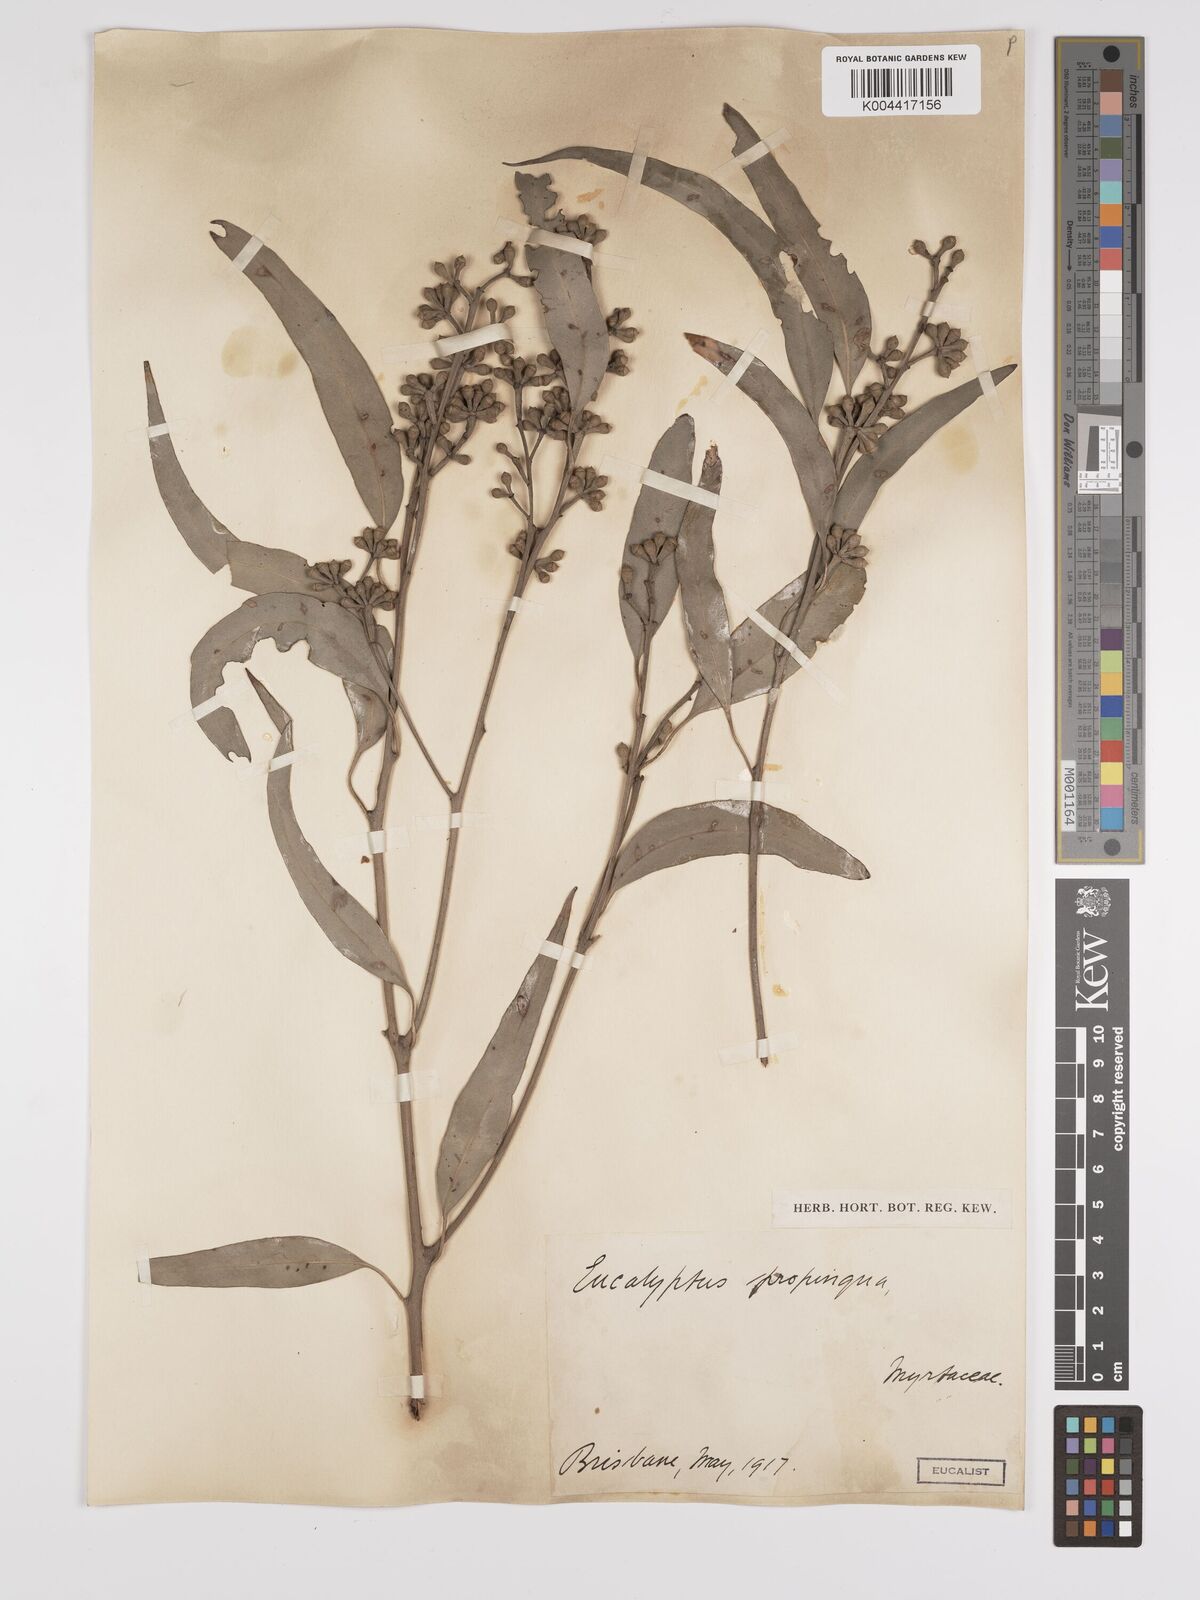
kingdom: Plantae
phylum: Tracheophyta
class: Magnoliopsida
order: Myrtales
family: Myrtaceae
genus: Eucalyptus
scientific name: Eucalyptus propinqua
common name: Grey-gum
